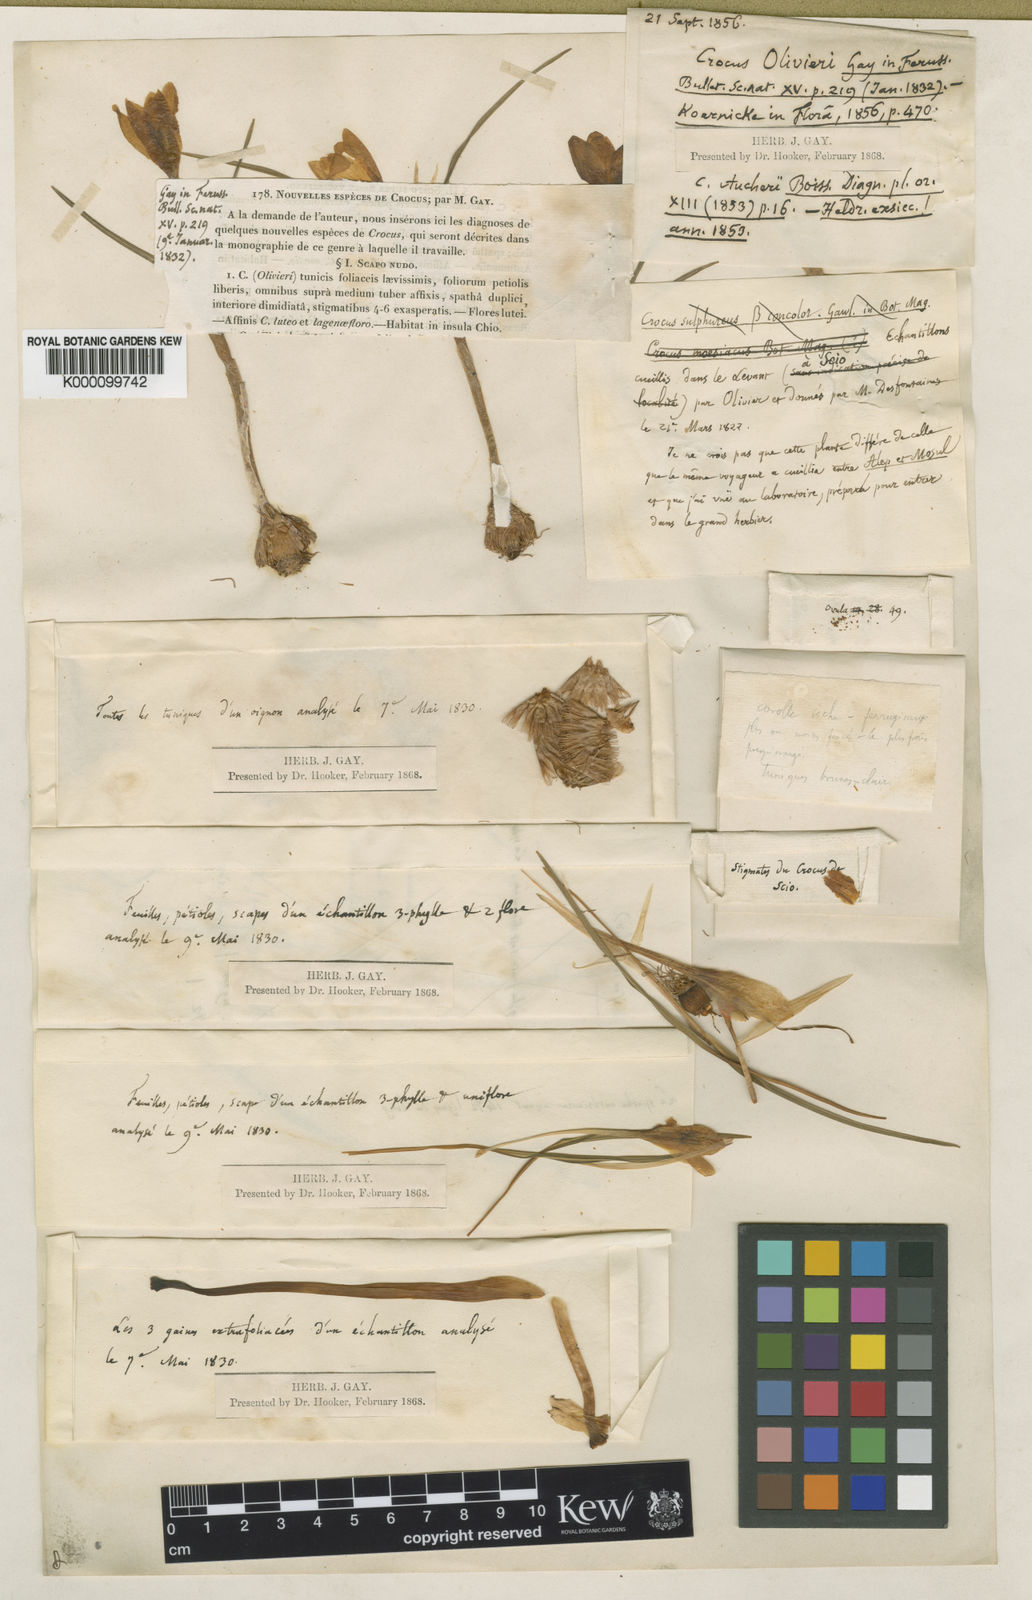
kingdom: Plantae
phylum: Tracheophyta
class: Liliopsida
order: Asparagales
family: Iridaceae
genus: Crocus
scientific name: Crocus olivieri
